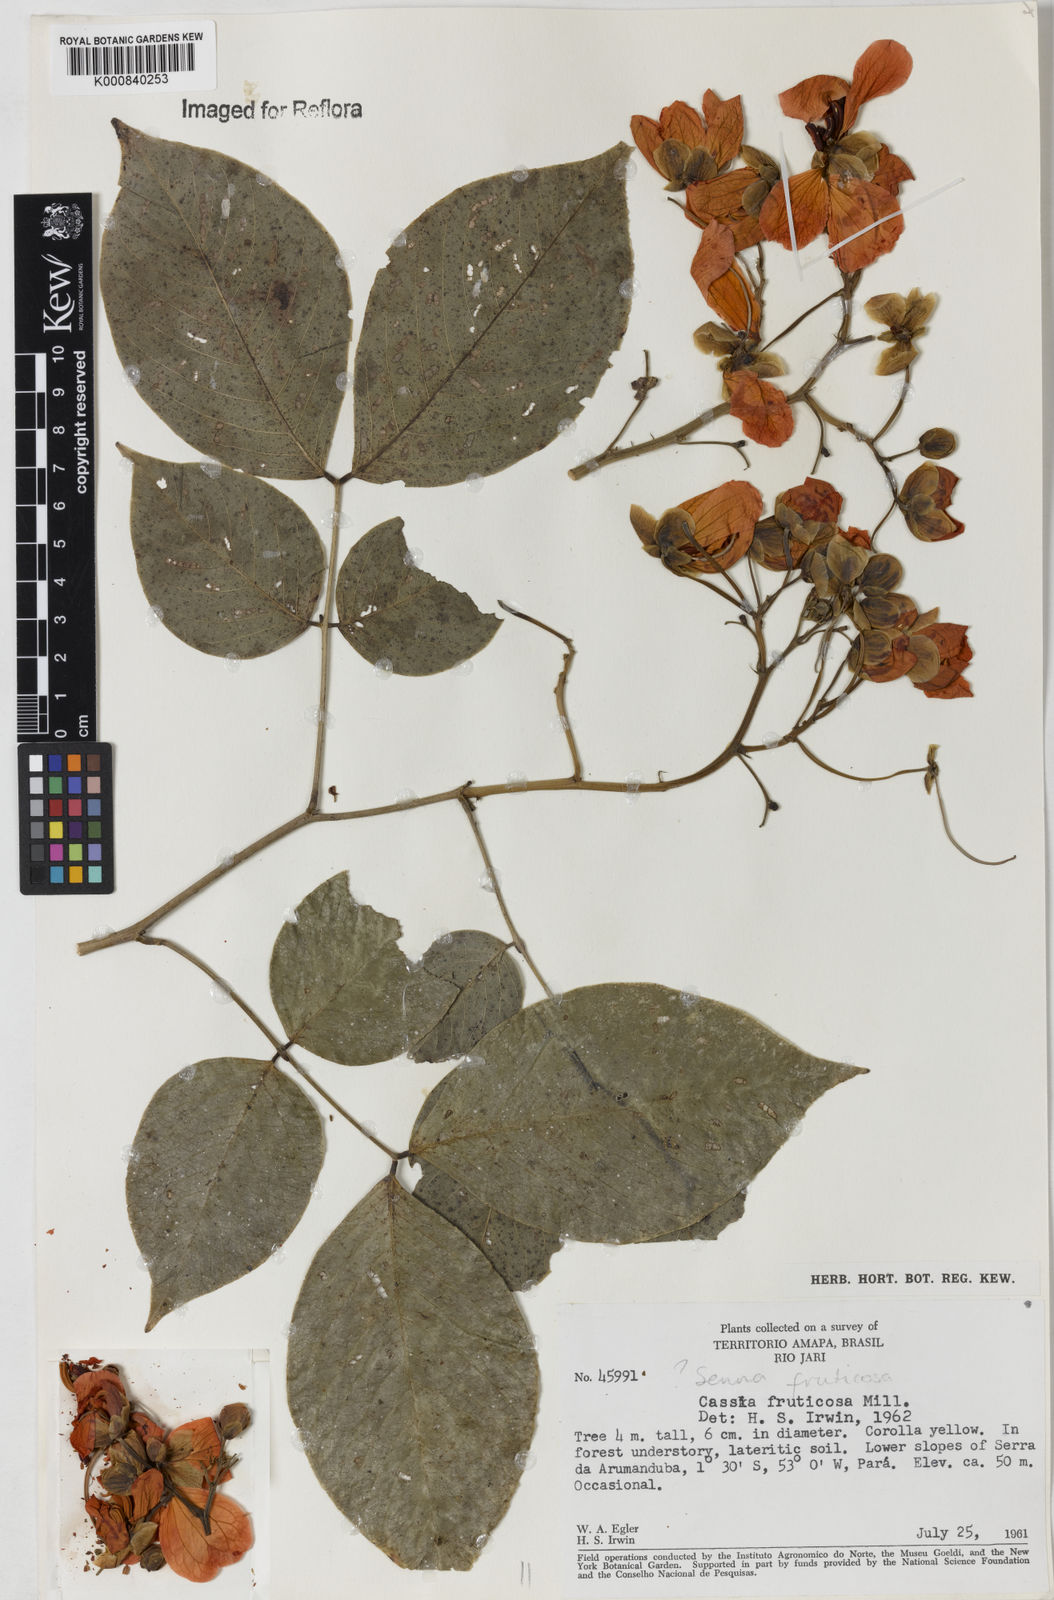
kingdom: Plantae
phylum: Tracheophyta
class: Magnoliopsida
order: Fabales
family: Fabaceae
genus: Senna
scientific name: Senna georgica
